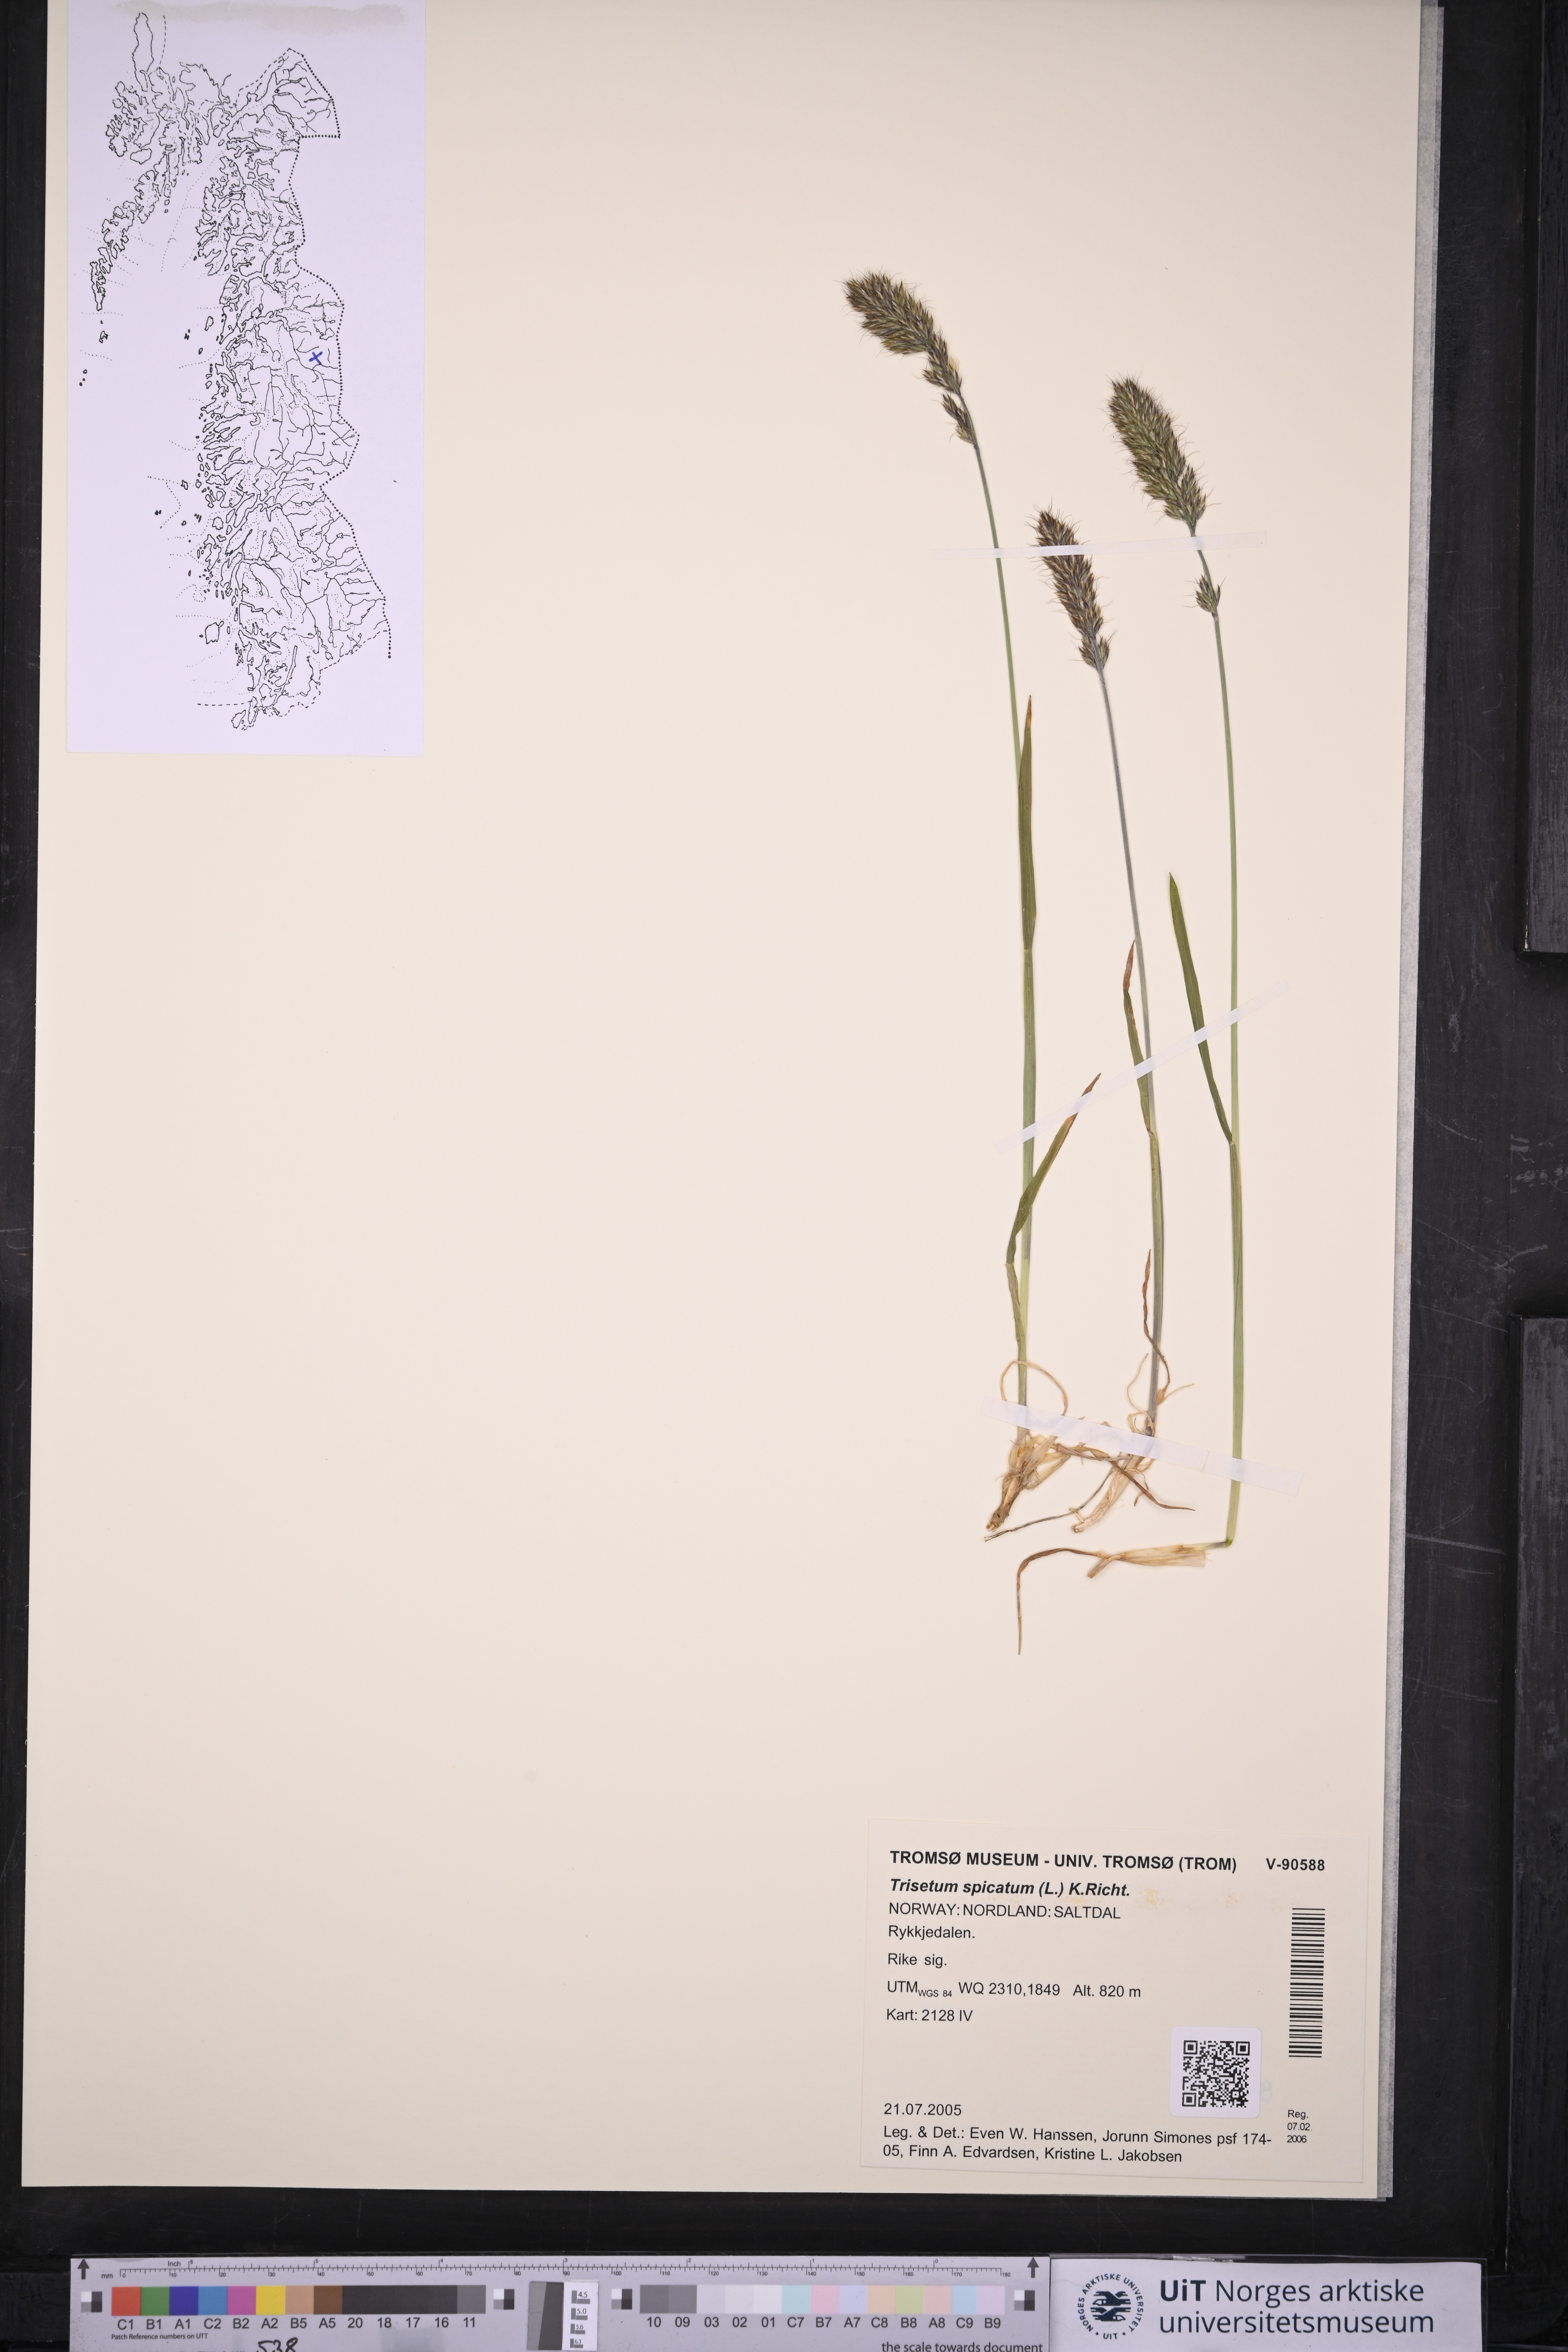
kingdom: Plantae
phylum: Tracheophyta
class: Liliopsida
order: Poales
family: Poaceae
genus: Koeleria
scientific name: Koeleria spicata
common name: Mountain trisetum
